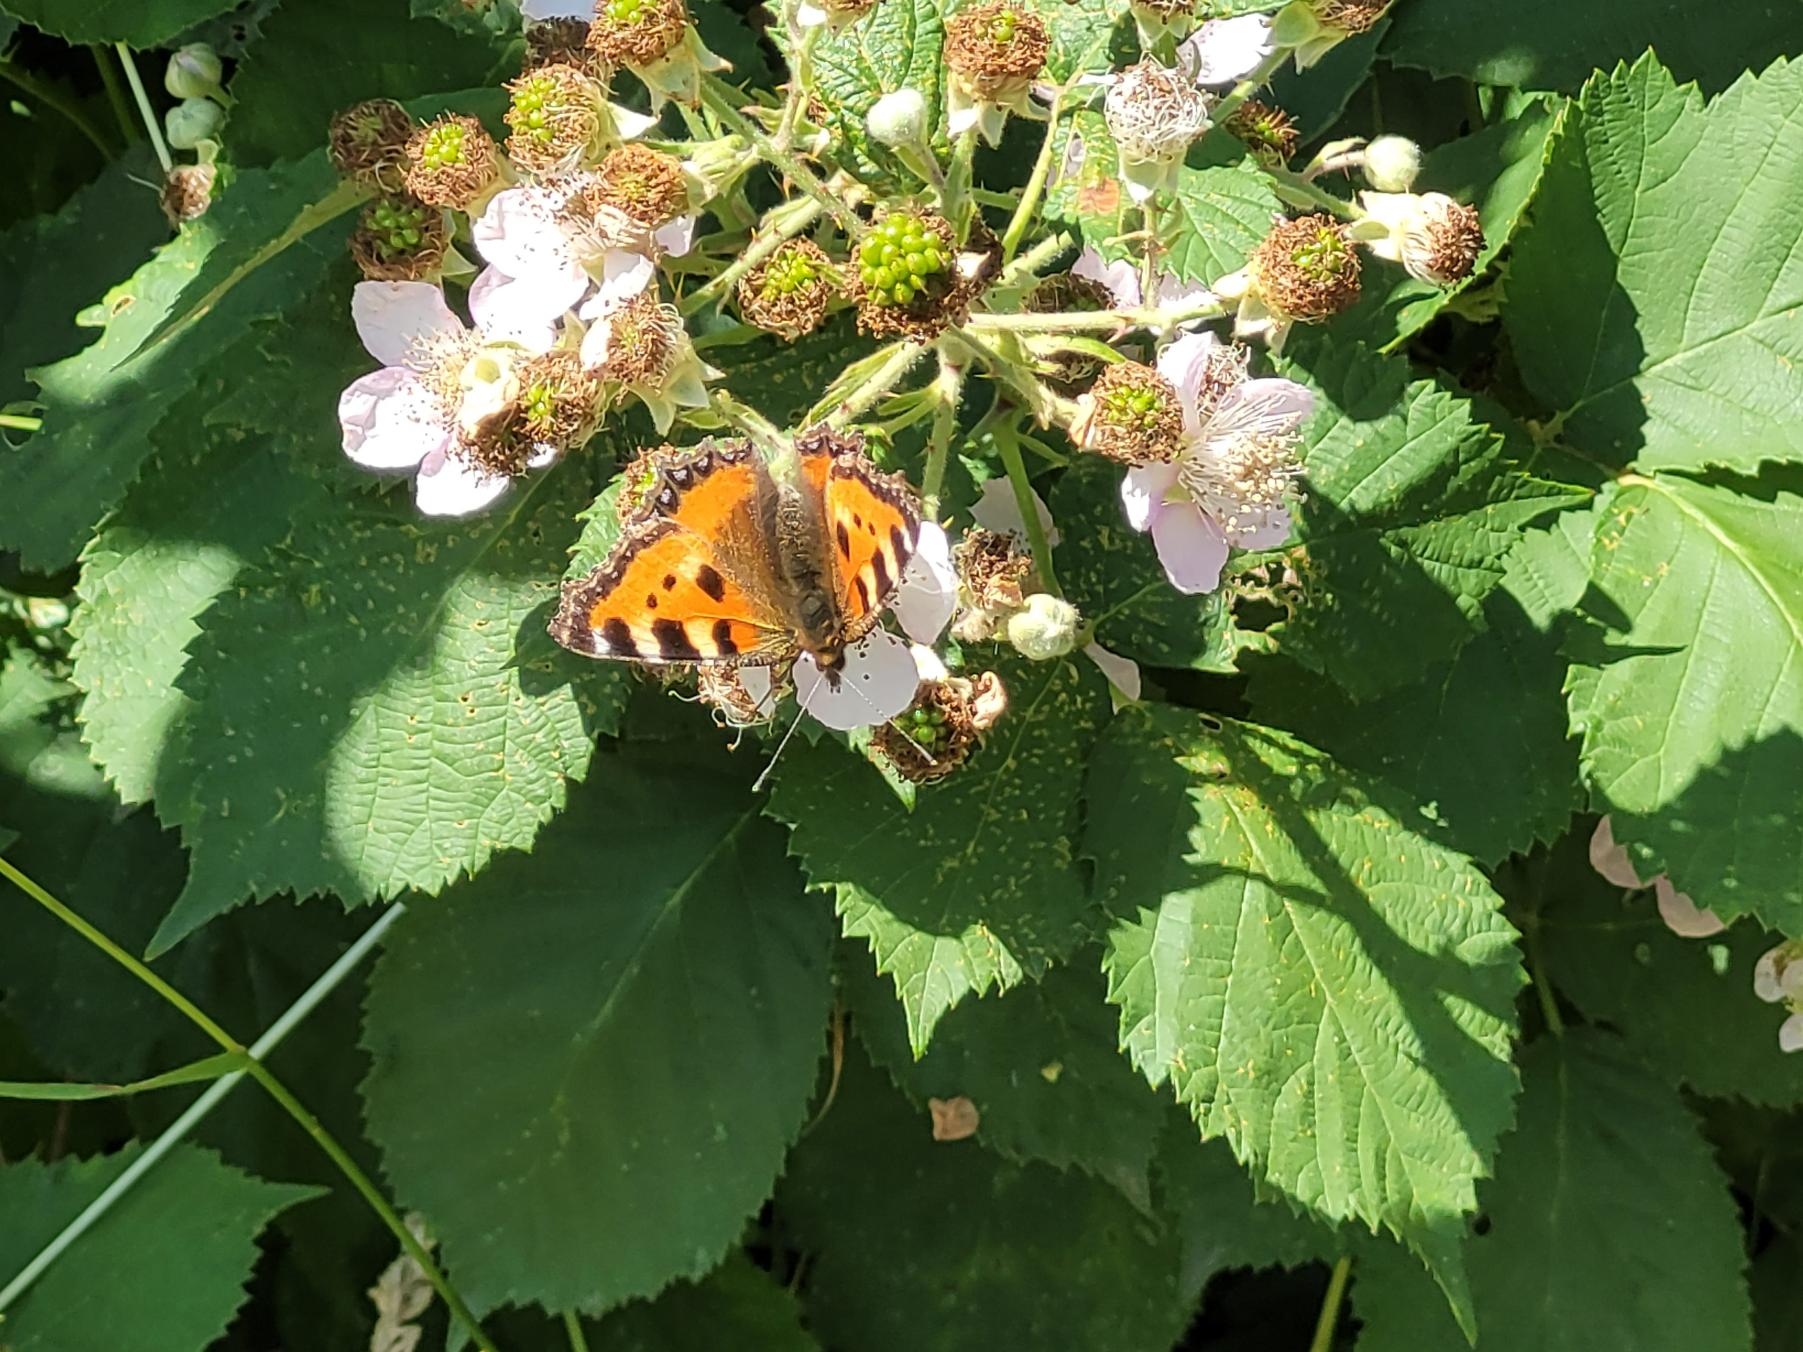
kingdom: Animalia
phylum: Arthropoda
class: Insecta
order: Lepidoptera
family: Nymphalidae
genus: Aglais
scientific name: Aglais urticae
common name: Nældens takvinge
